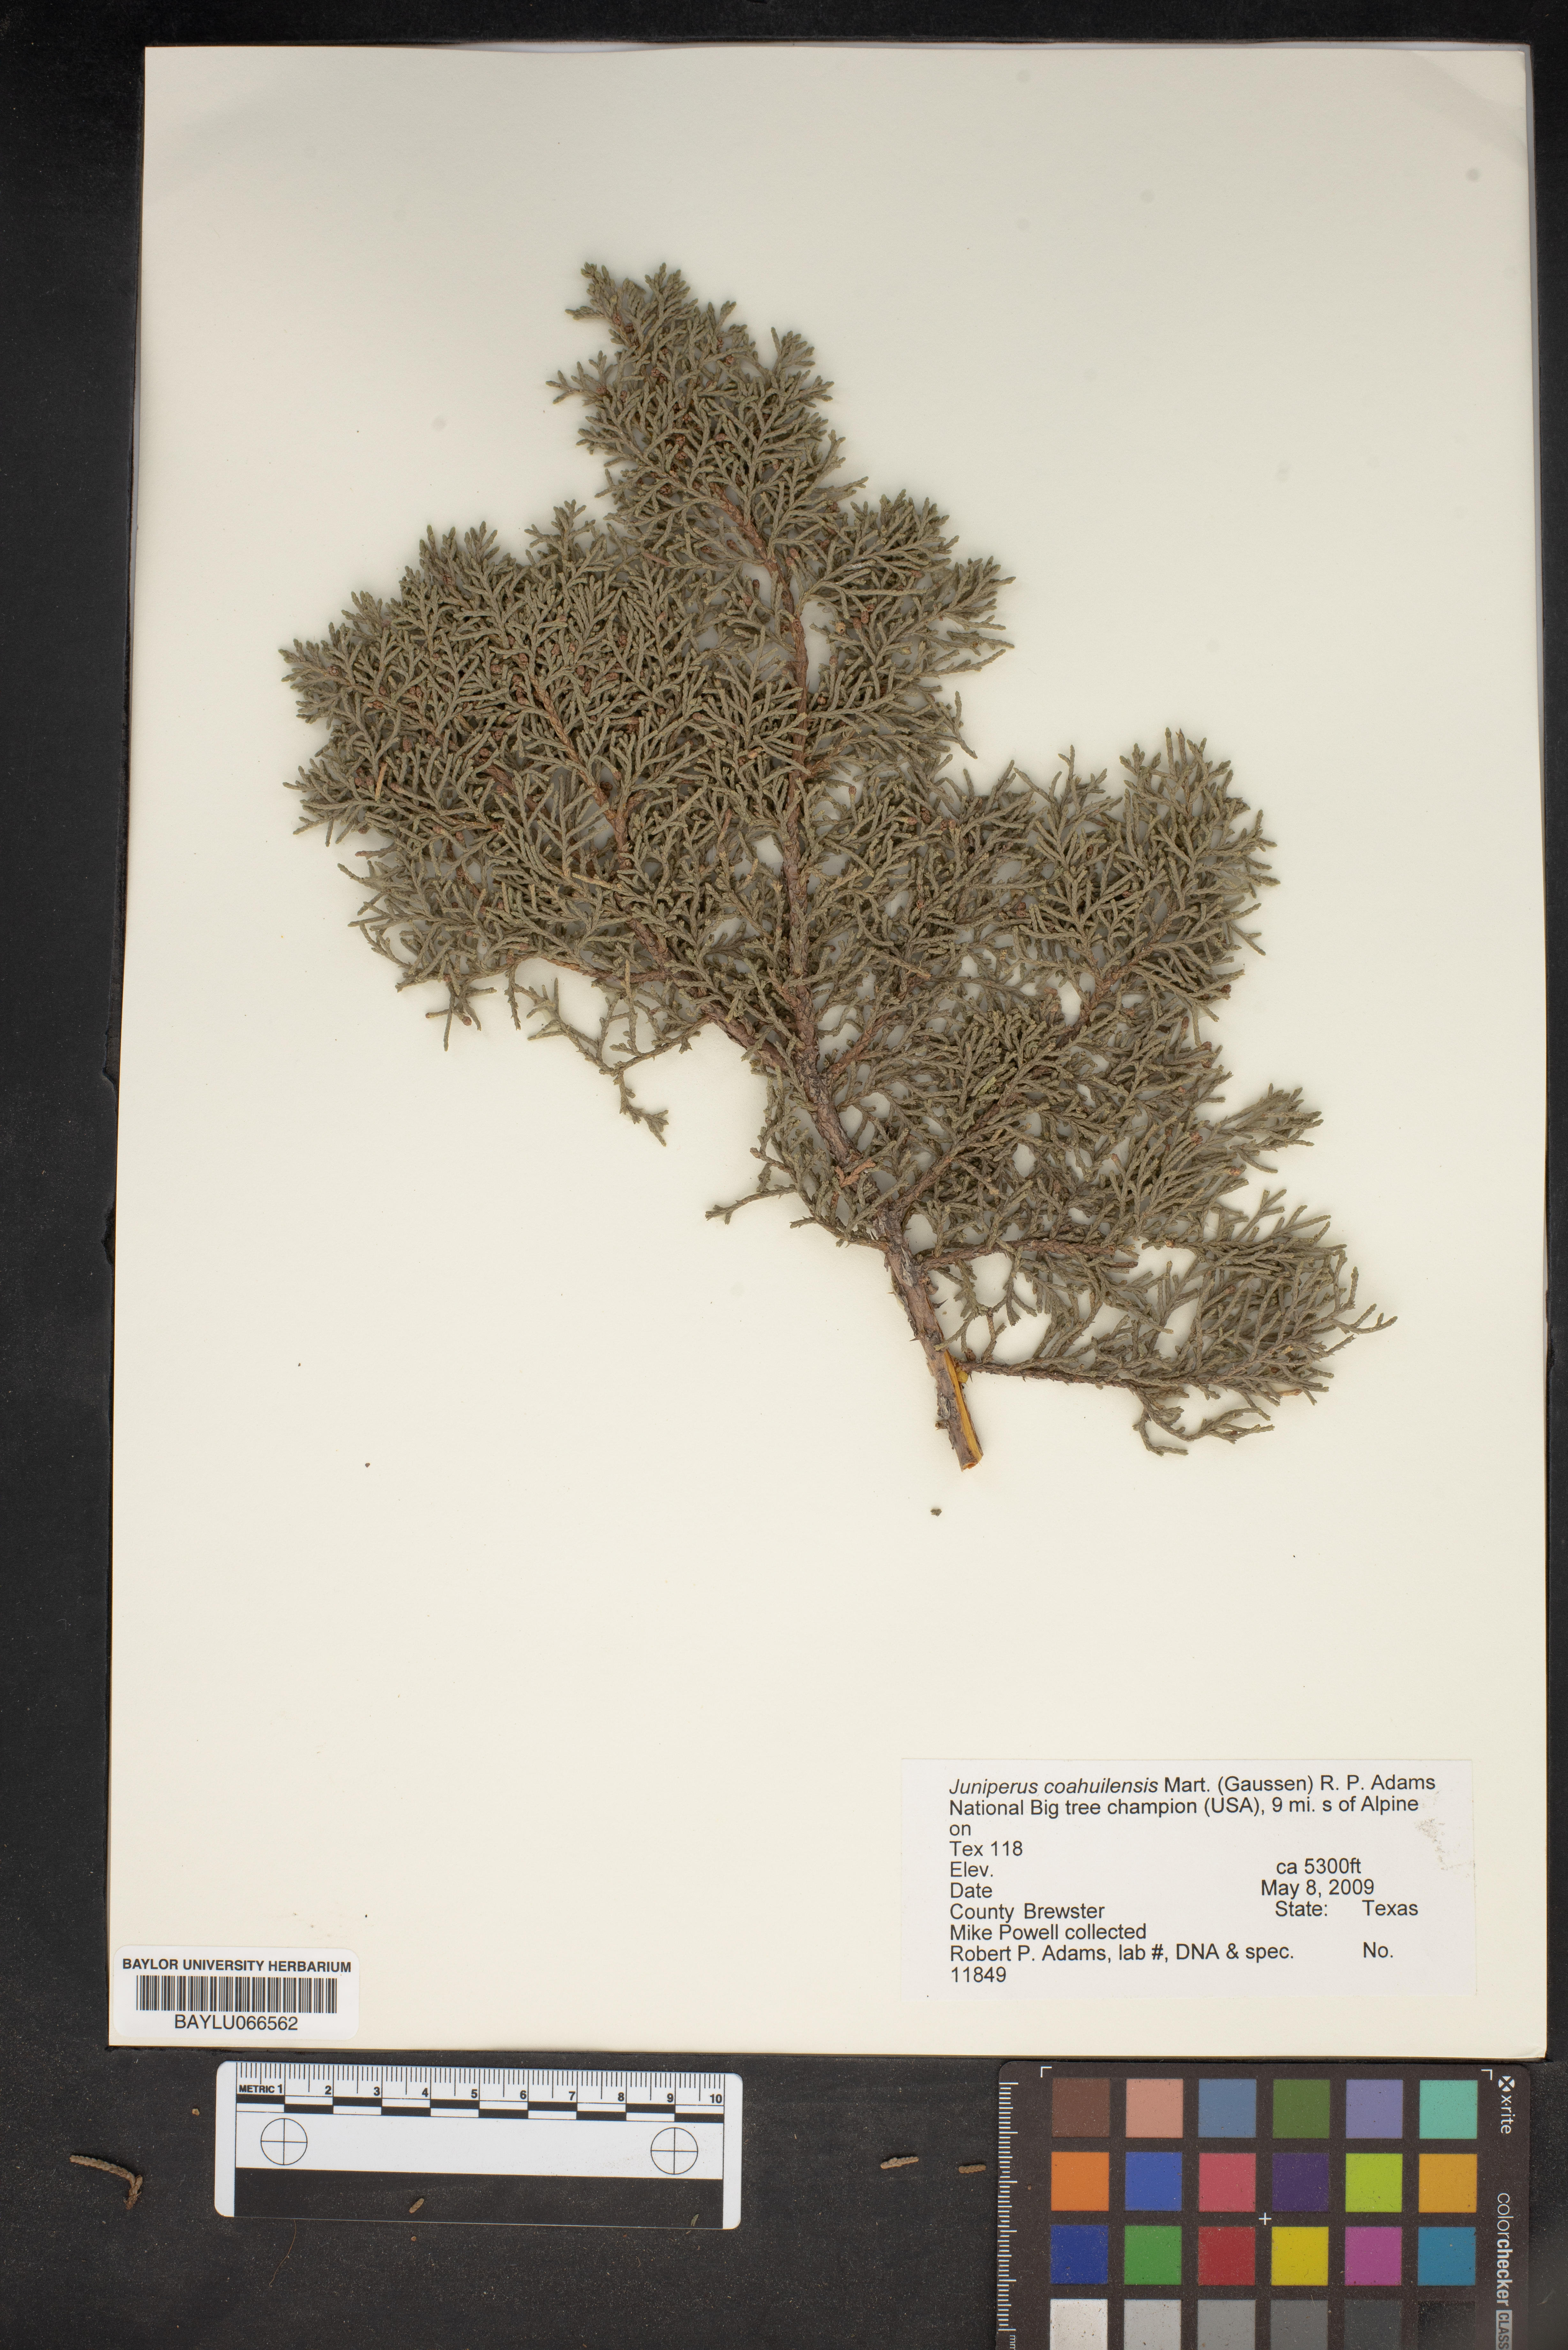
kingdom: Plantae
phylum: Tracheophyta
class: Pinopsida
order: Pinales
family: Cupressaceae
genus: Juniperus
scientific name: Juniperus coahuilensis
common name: Roseberry
